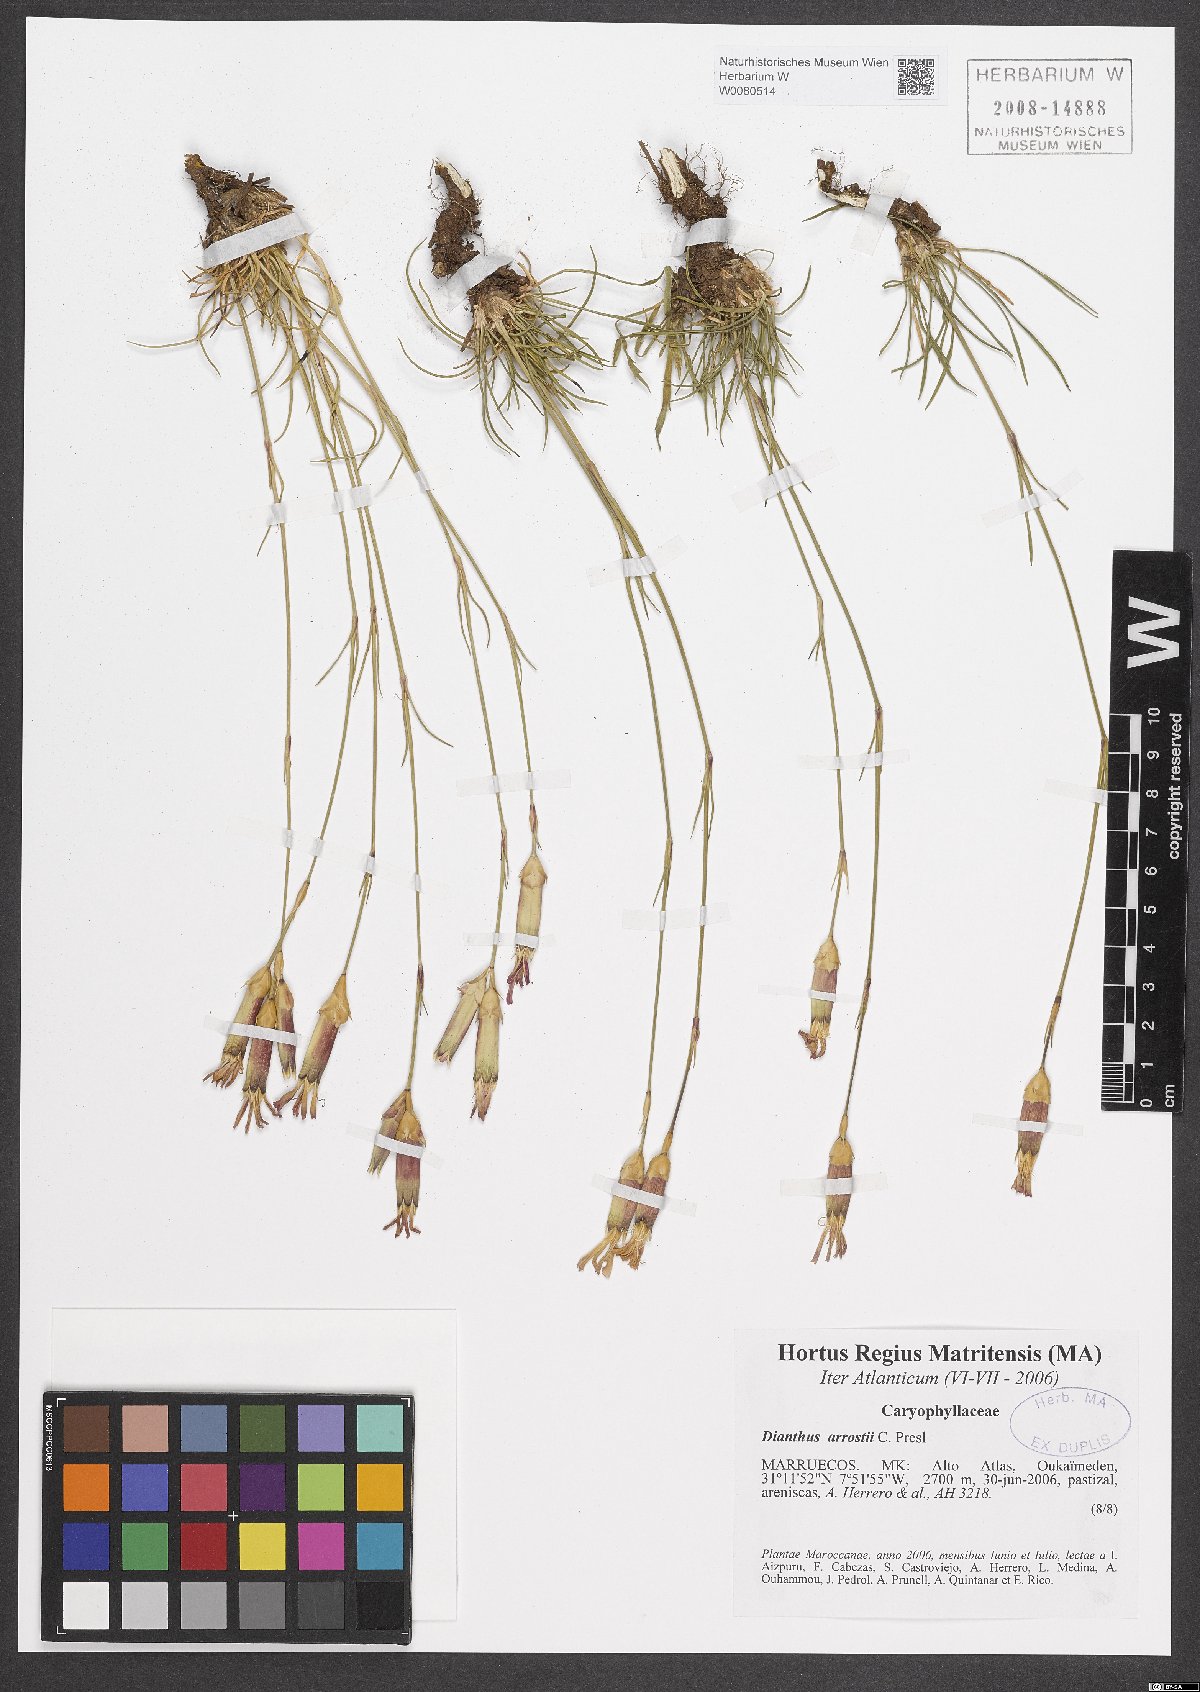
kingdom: Plantae
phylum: Tracheophyta
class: Magnoliopsida
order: Caryophyllales
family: Caryophyllaceae
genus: Dianthus
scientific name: Dianthus arrostii
